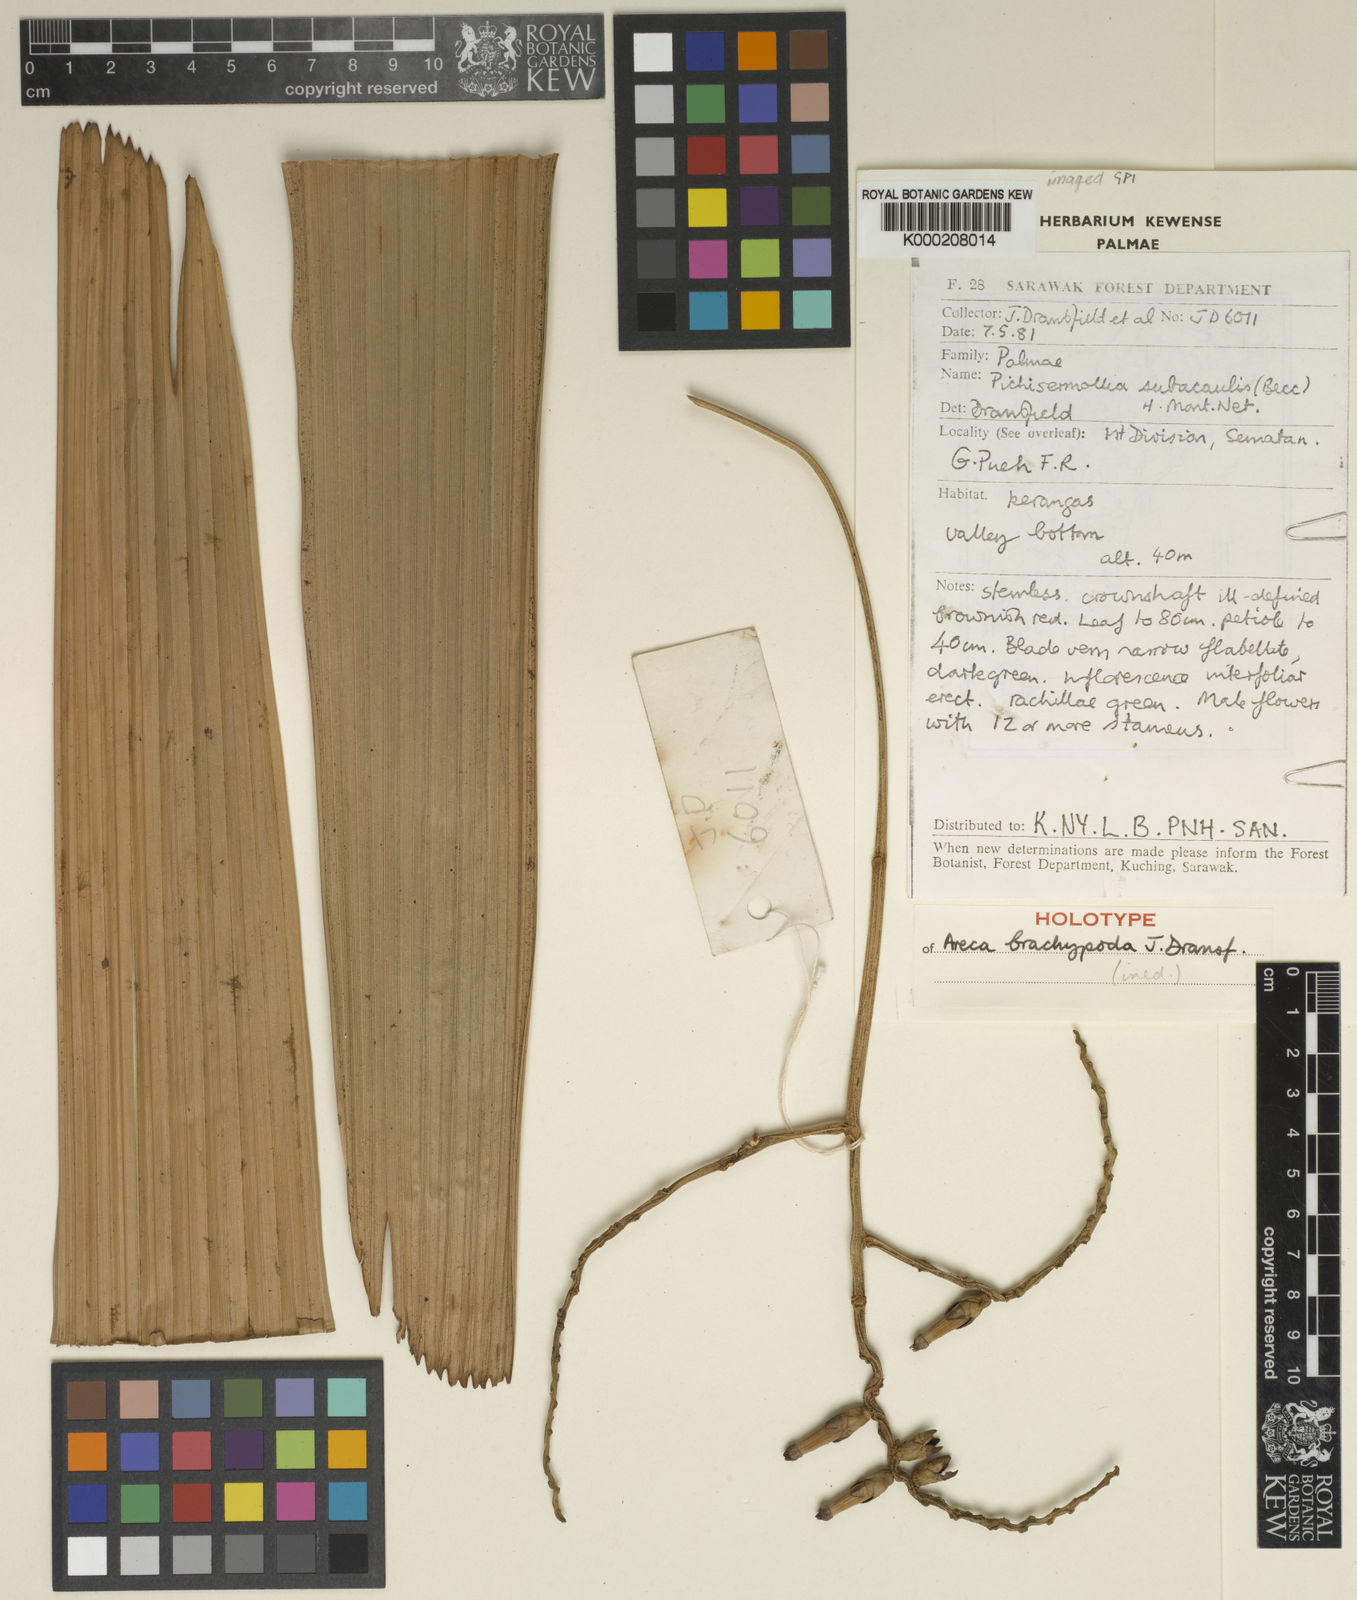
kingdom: Plantae
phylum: Tracheophyta
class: Liliopsida
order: Arecales
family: Arecaceae
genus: Areca
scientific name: Areca brachypoda
